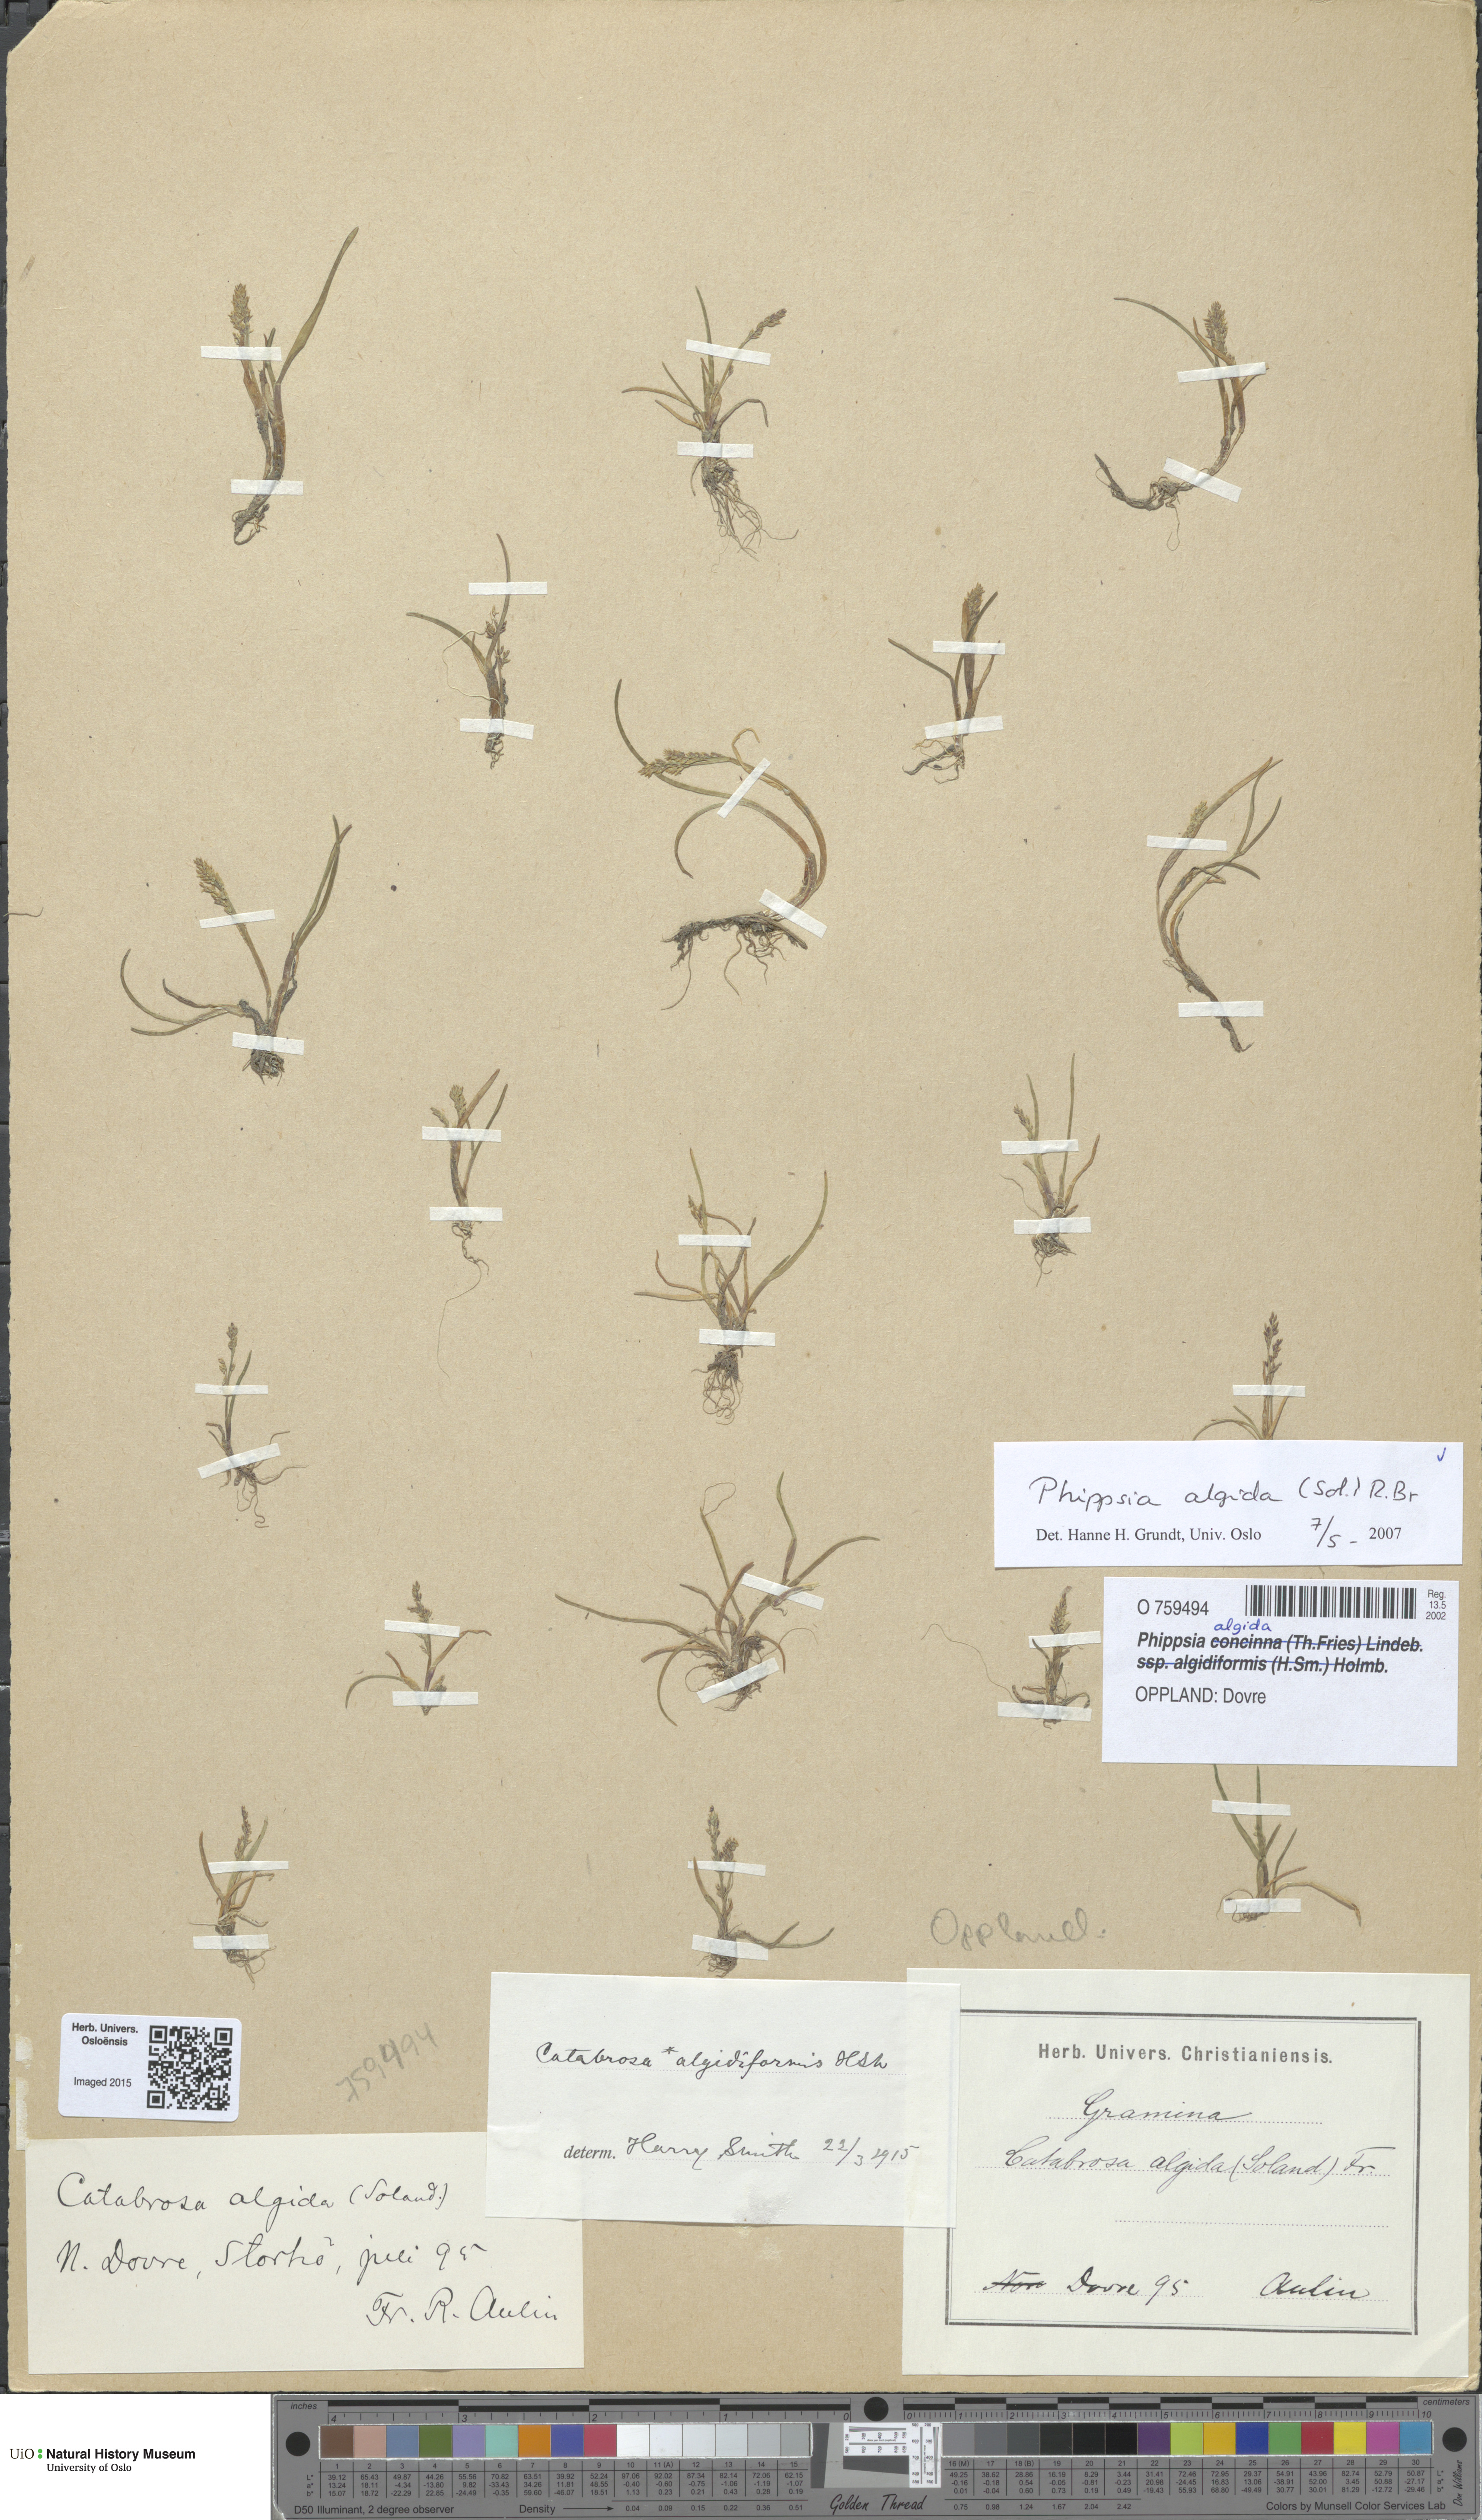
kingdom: Plantae
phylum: Tracheophyta
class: Liliopsida
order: Poales
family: Poaceae
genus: Phippsia
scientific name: Phippsia algida
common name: Ice grass
